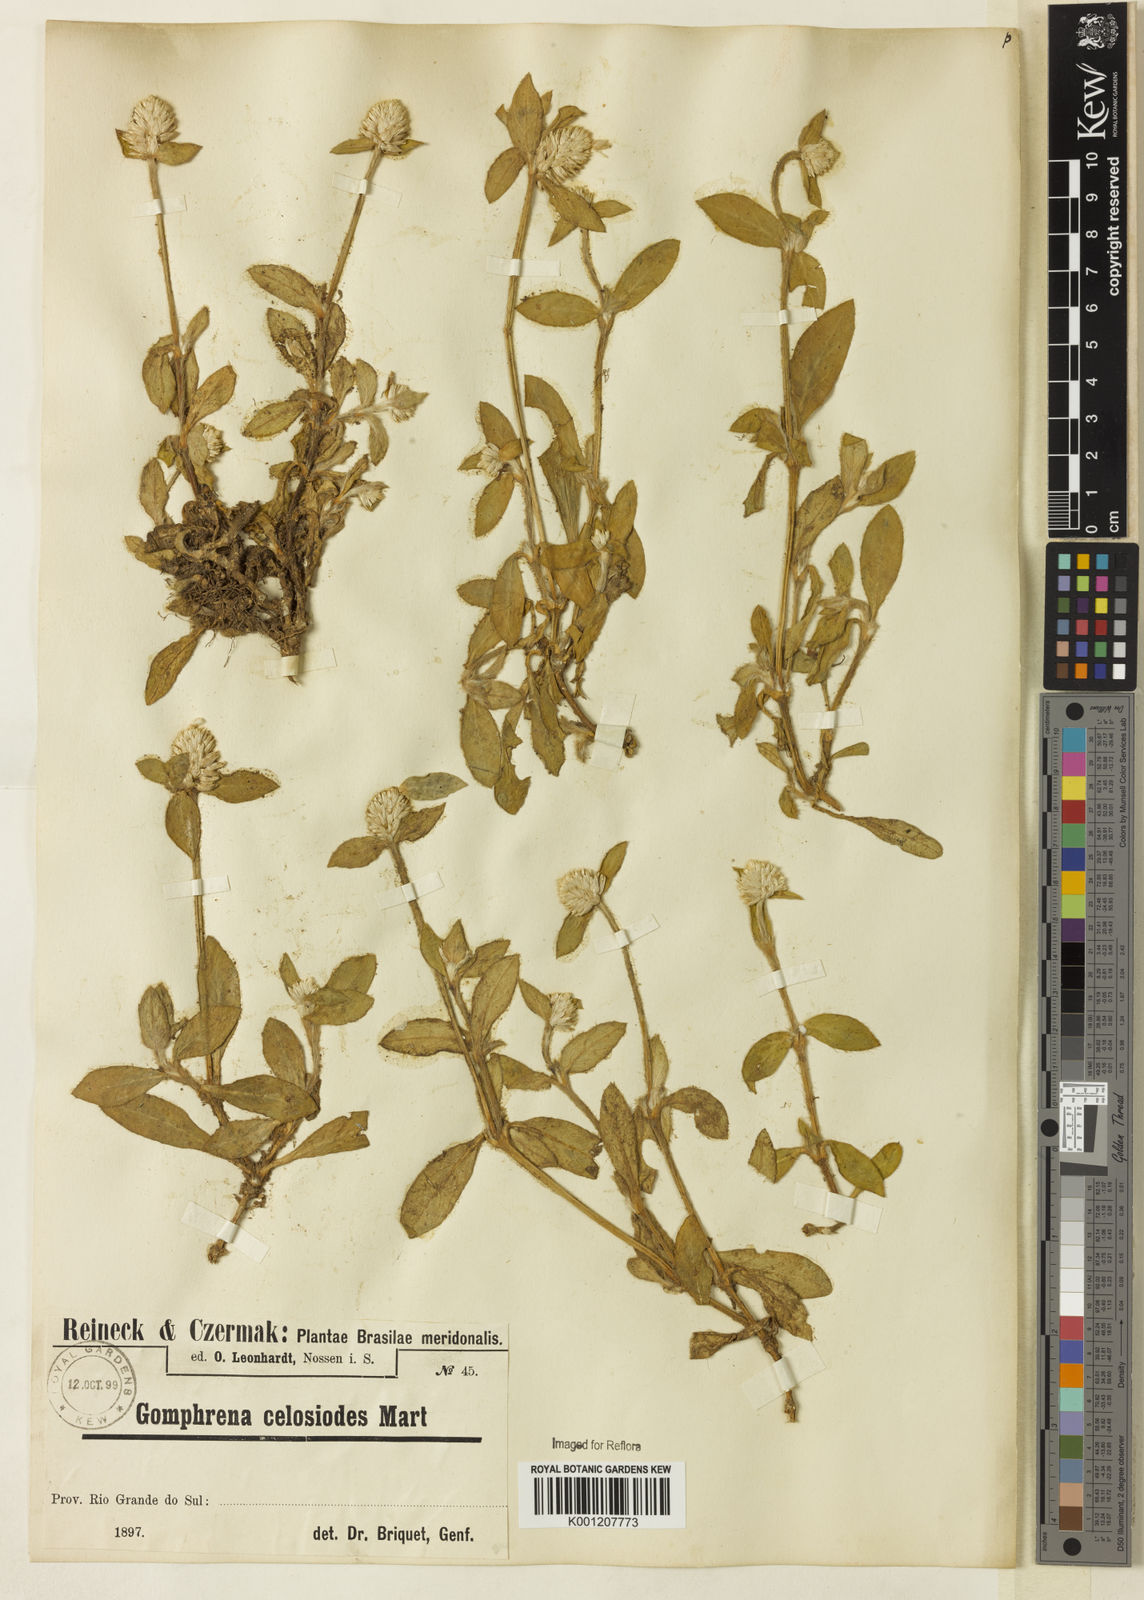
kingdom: Plantae
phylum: Tracheophyta
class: Magnoliopsida
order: Caryophyllales
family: Amaranthaceae
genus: Gomphrena
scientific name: Gomphrena celosioides
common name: Gomphrena-weed
